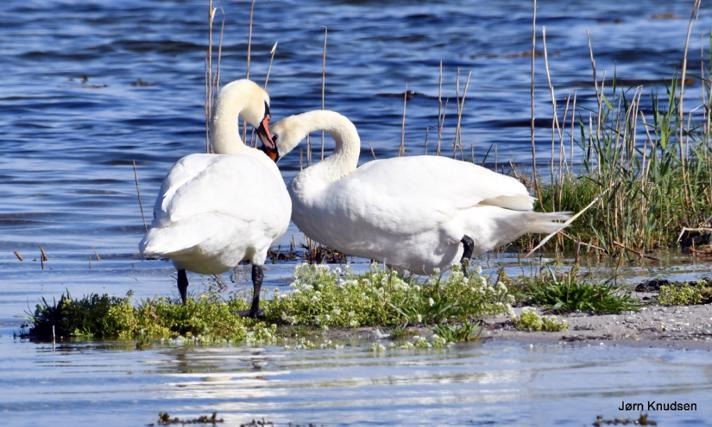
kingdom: Animalia
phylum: Chordata
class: Aves
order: Anseriformes
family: Anatidae
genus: Cygnus
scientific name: Cygnus olor
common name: Knopsvane
